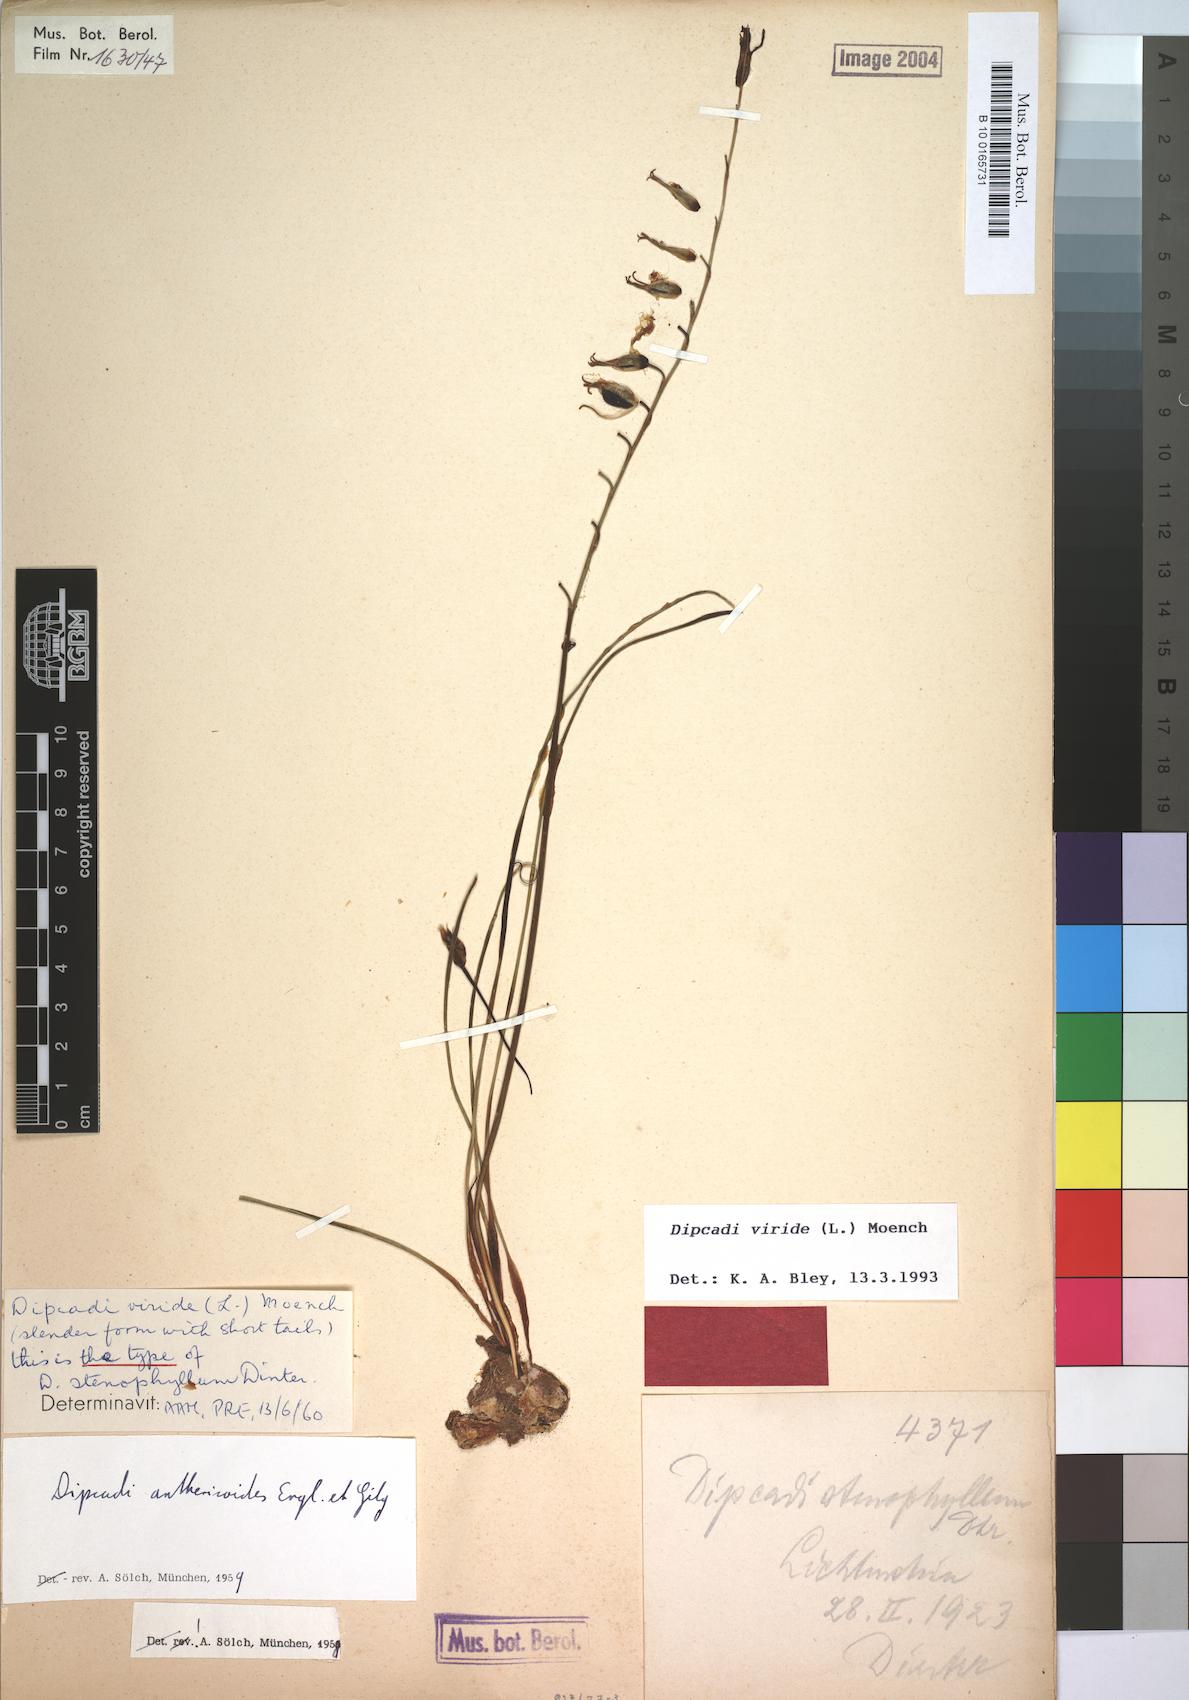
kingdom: Plantae
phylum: Tracheophyta
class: Liliopsida
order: Asparagales
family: Asparagaceae
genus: Dipcadi
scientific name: Dipcadi viride
